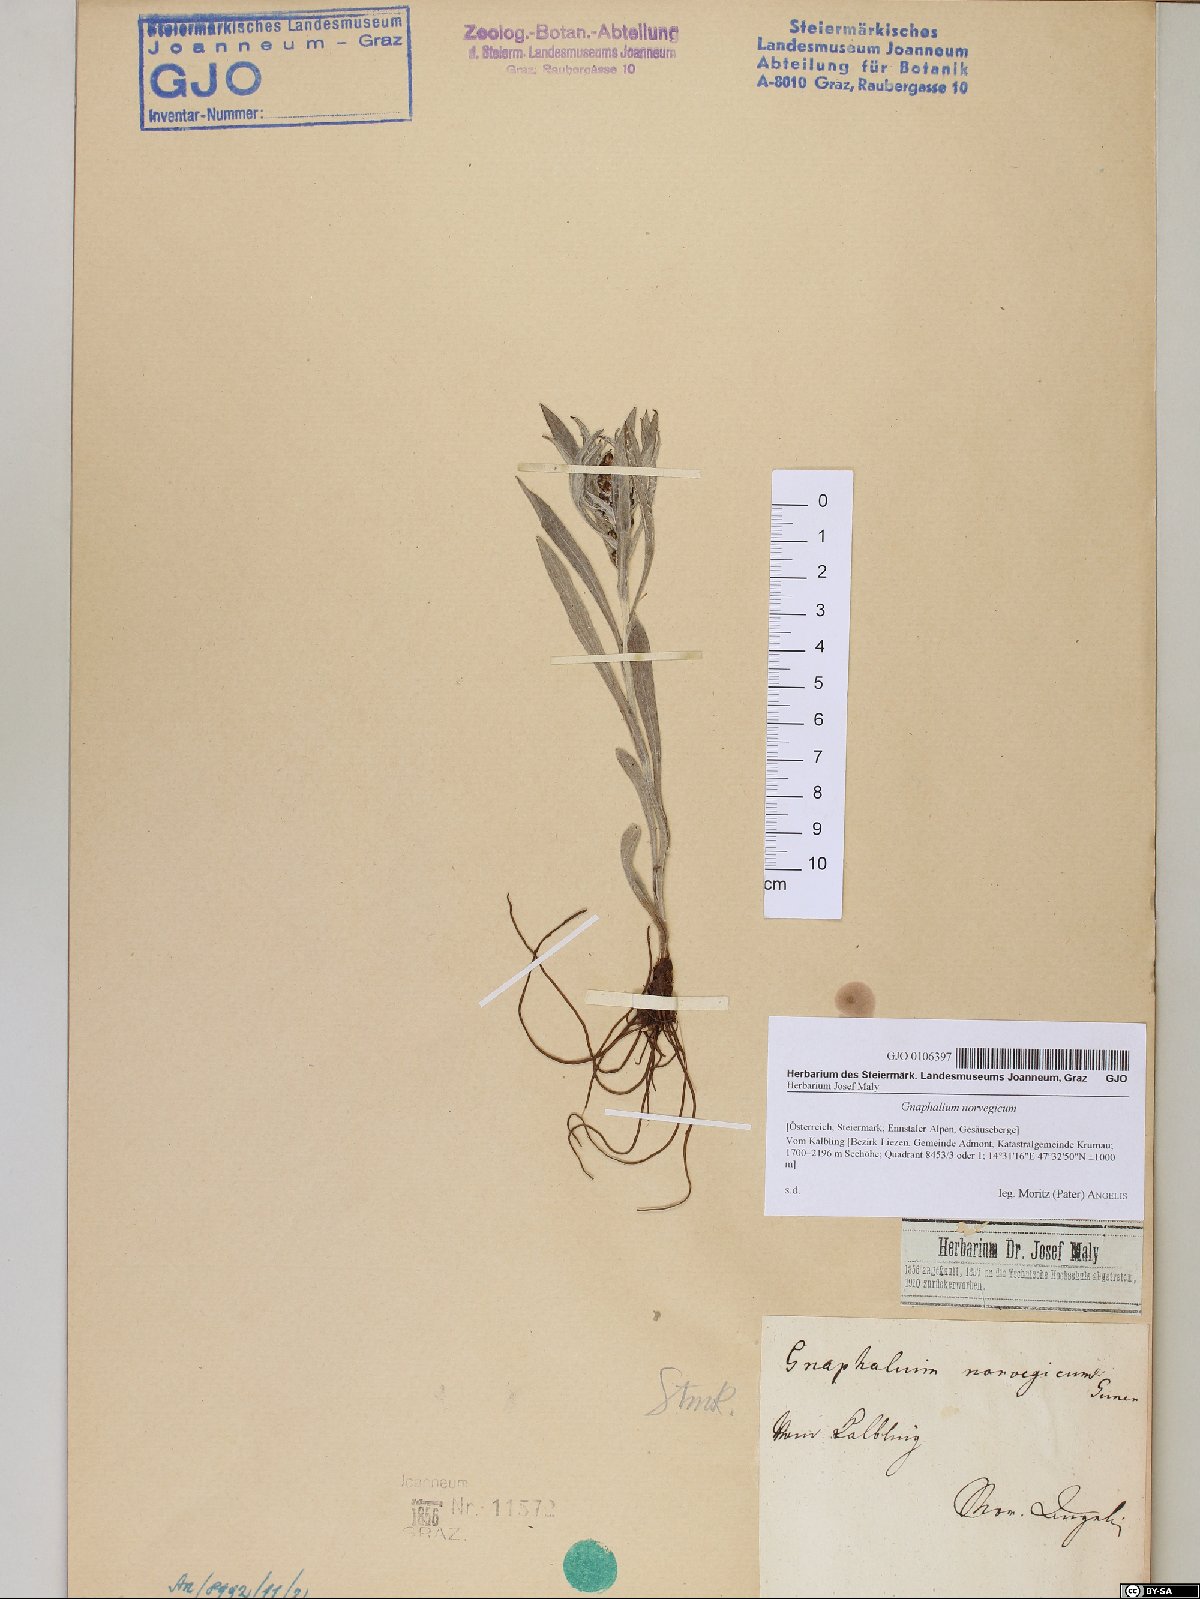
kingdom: Plantae
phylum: Tracheophyta
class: Magnoliopsida
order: Asterales
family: Asteraceae
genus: Omalotheca
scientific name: Omalotheca norvegica
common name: Norwegian arctic-cudweed
